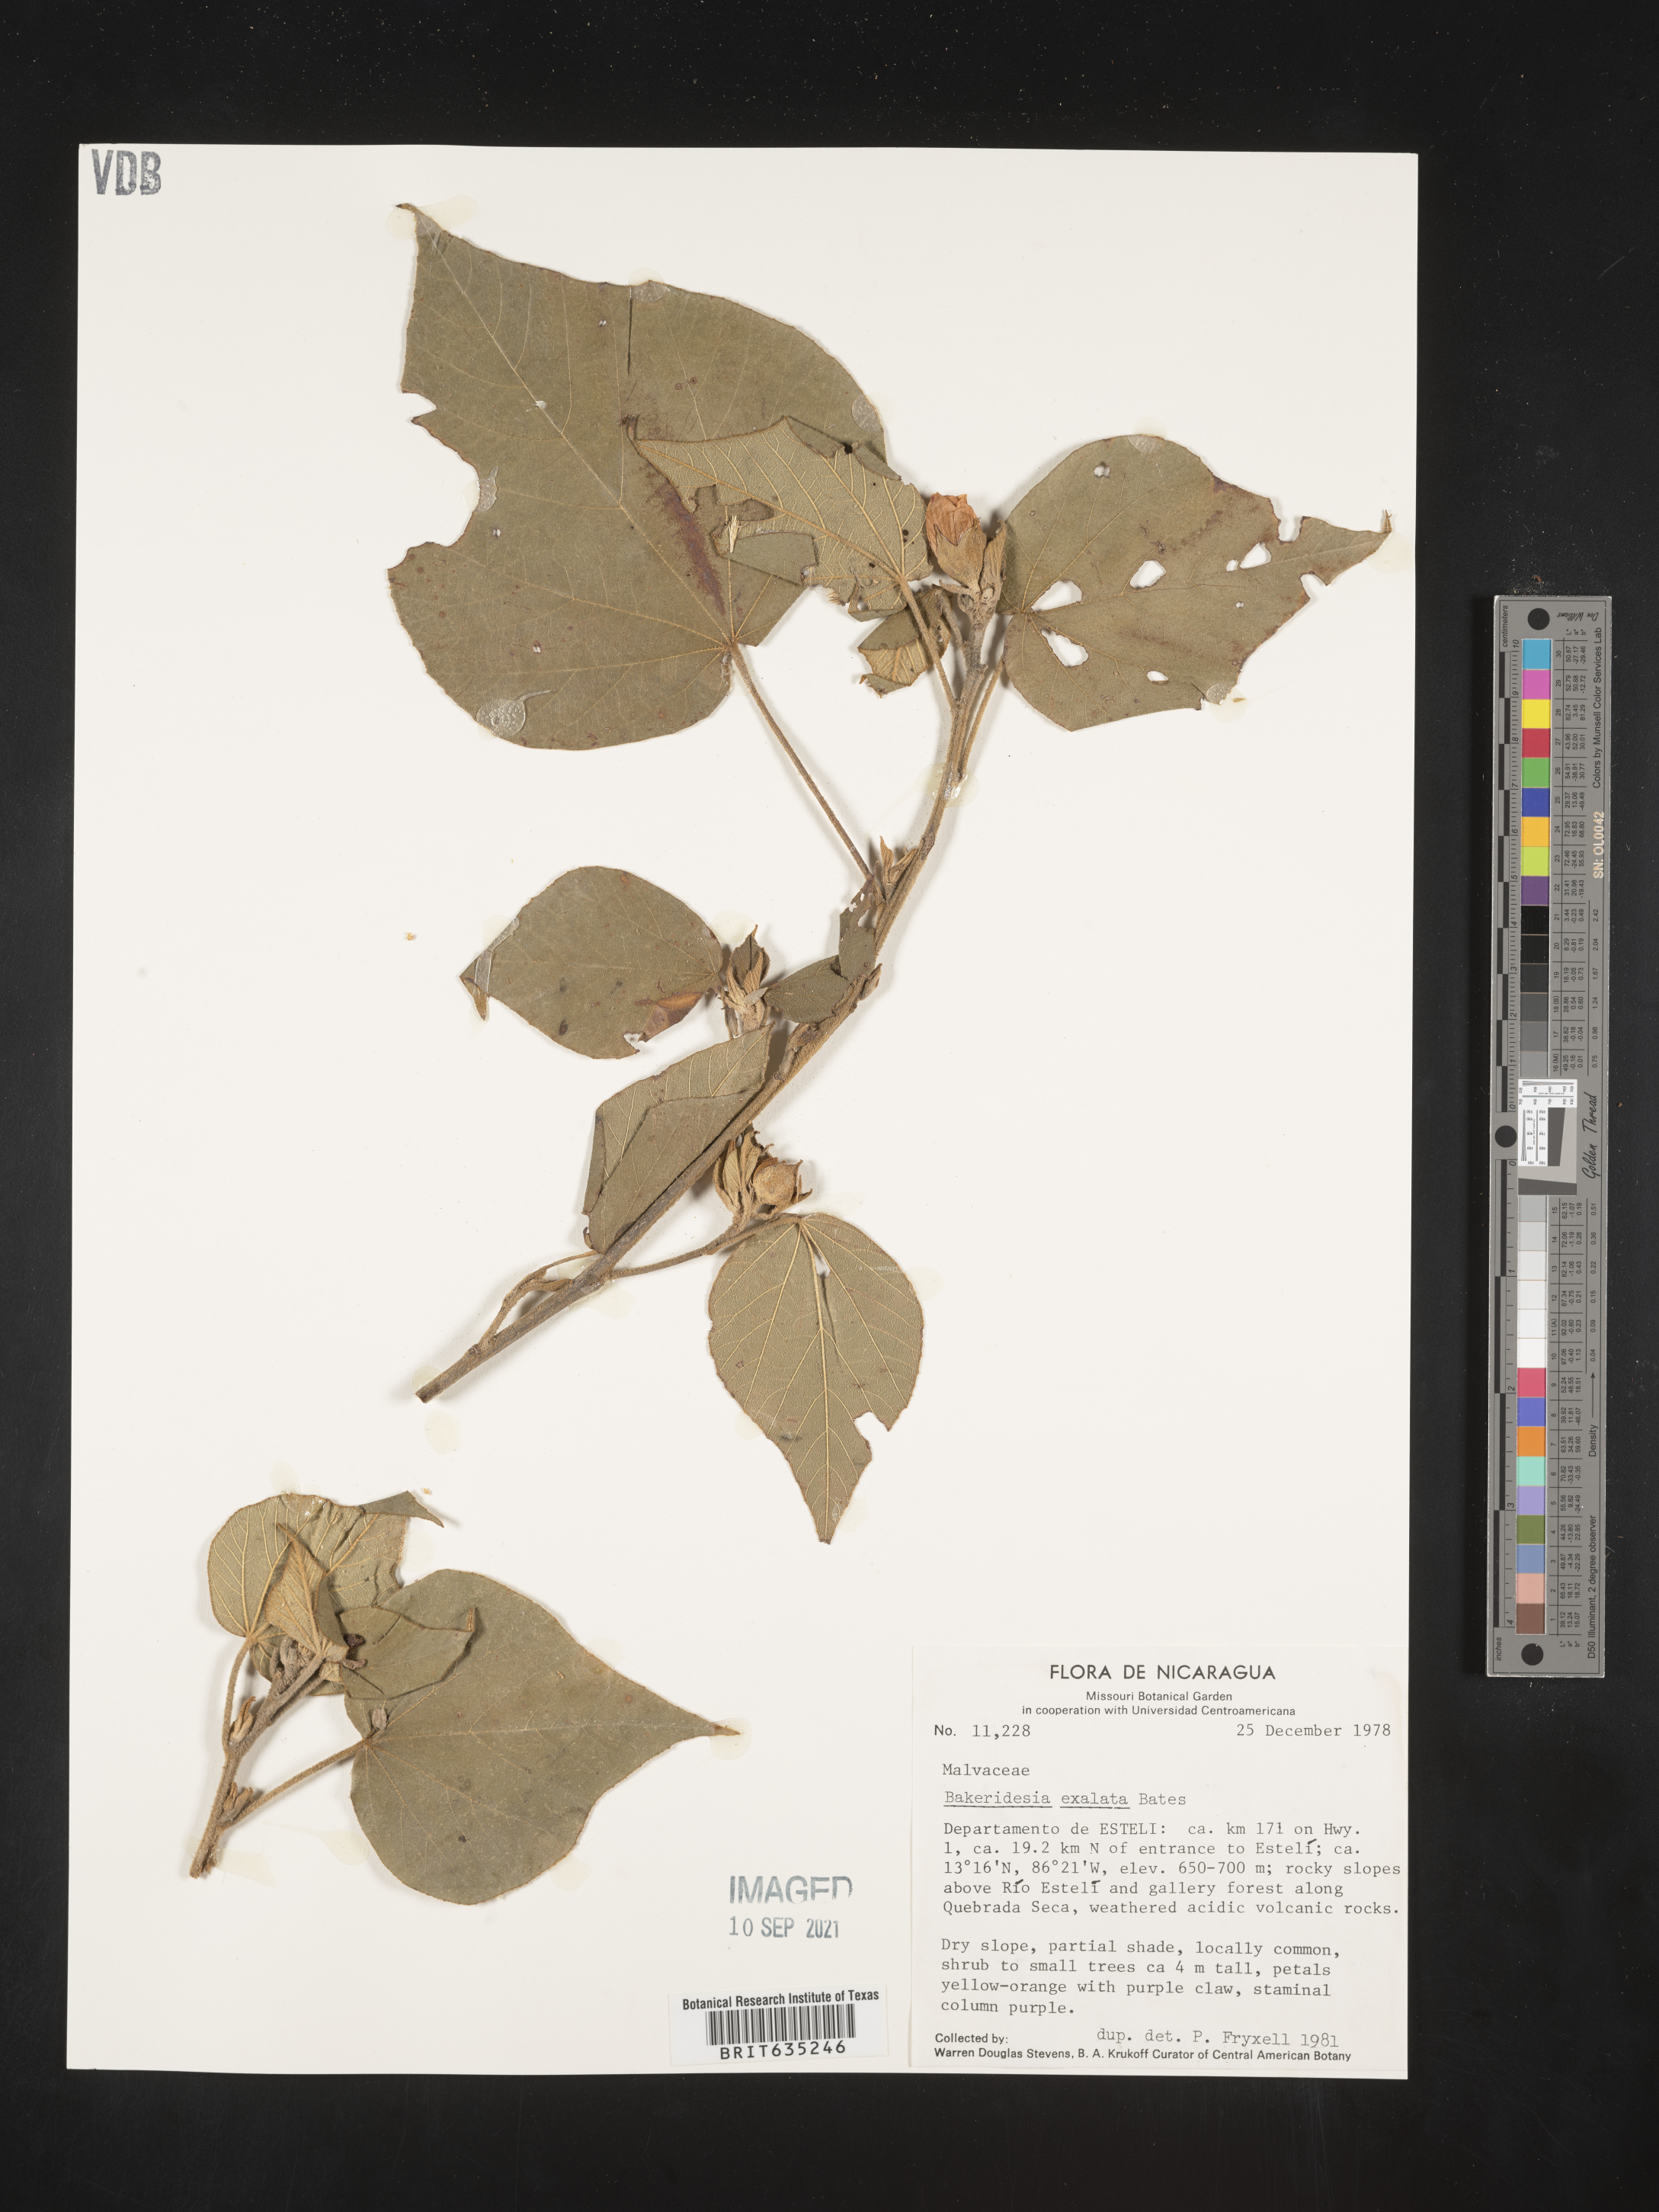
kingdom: Plantae
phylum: Tracheophyta
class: Magnoliopsida
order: Malvales
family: Malvaceae
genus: Bakeridesia
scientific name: Bakeridesia
